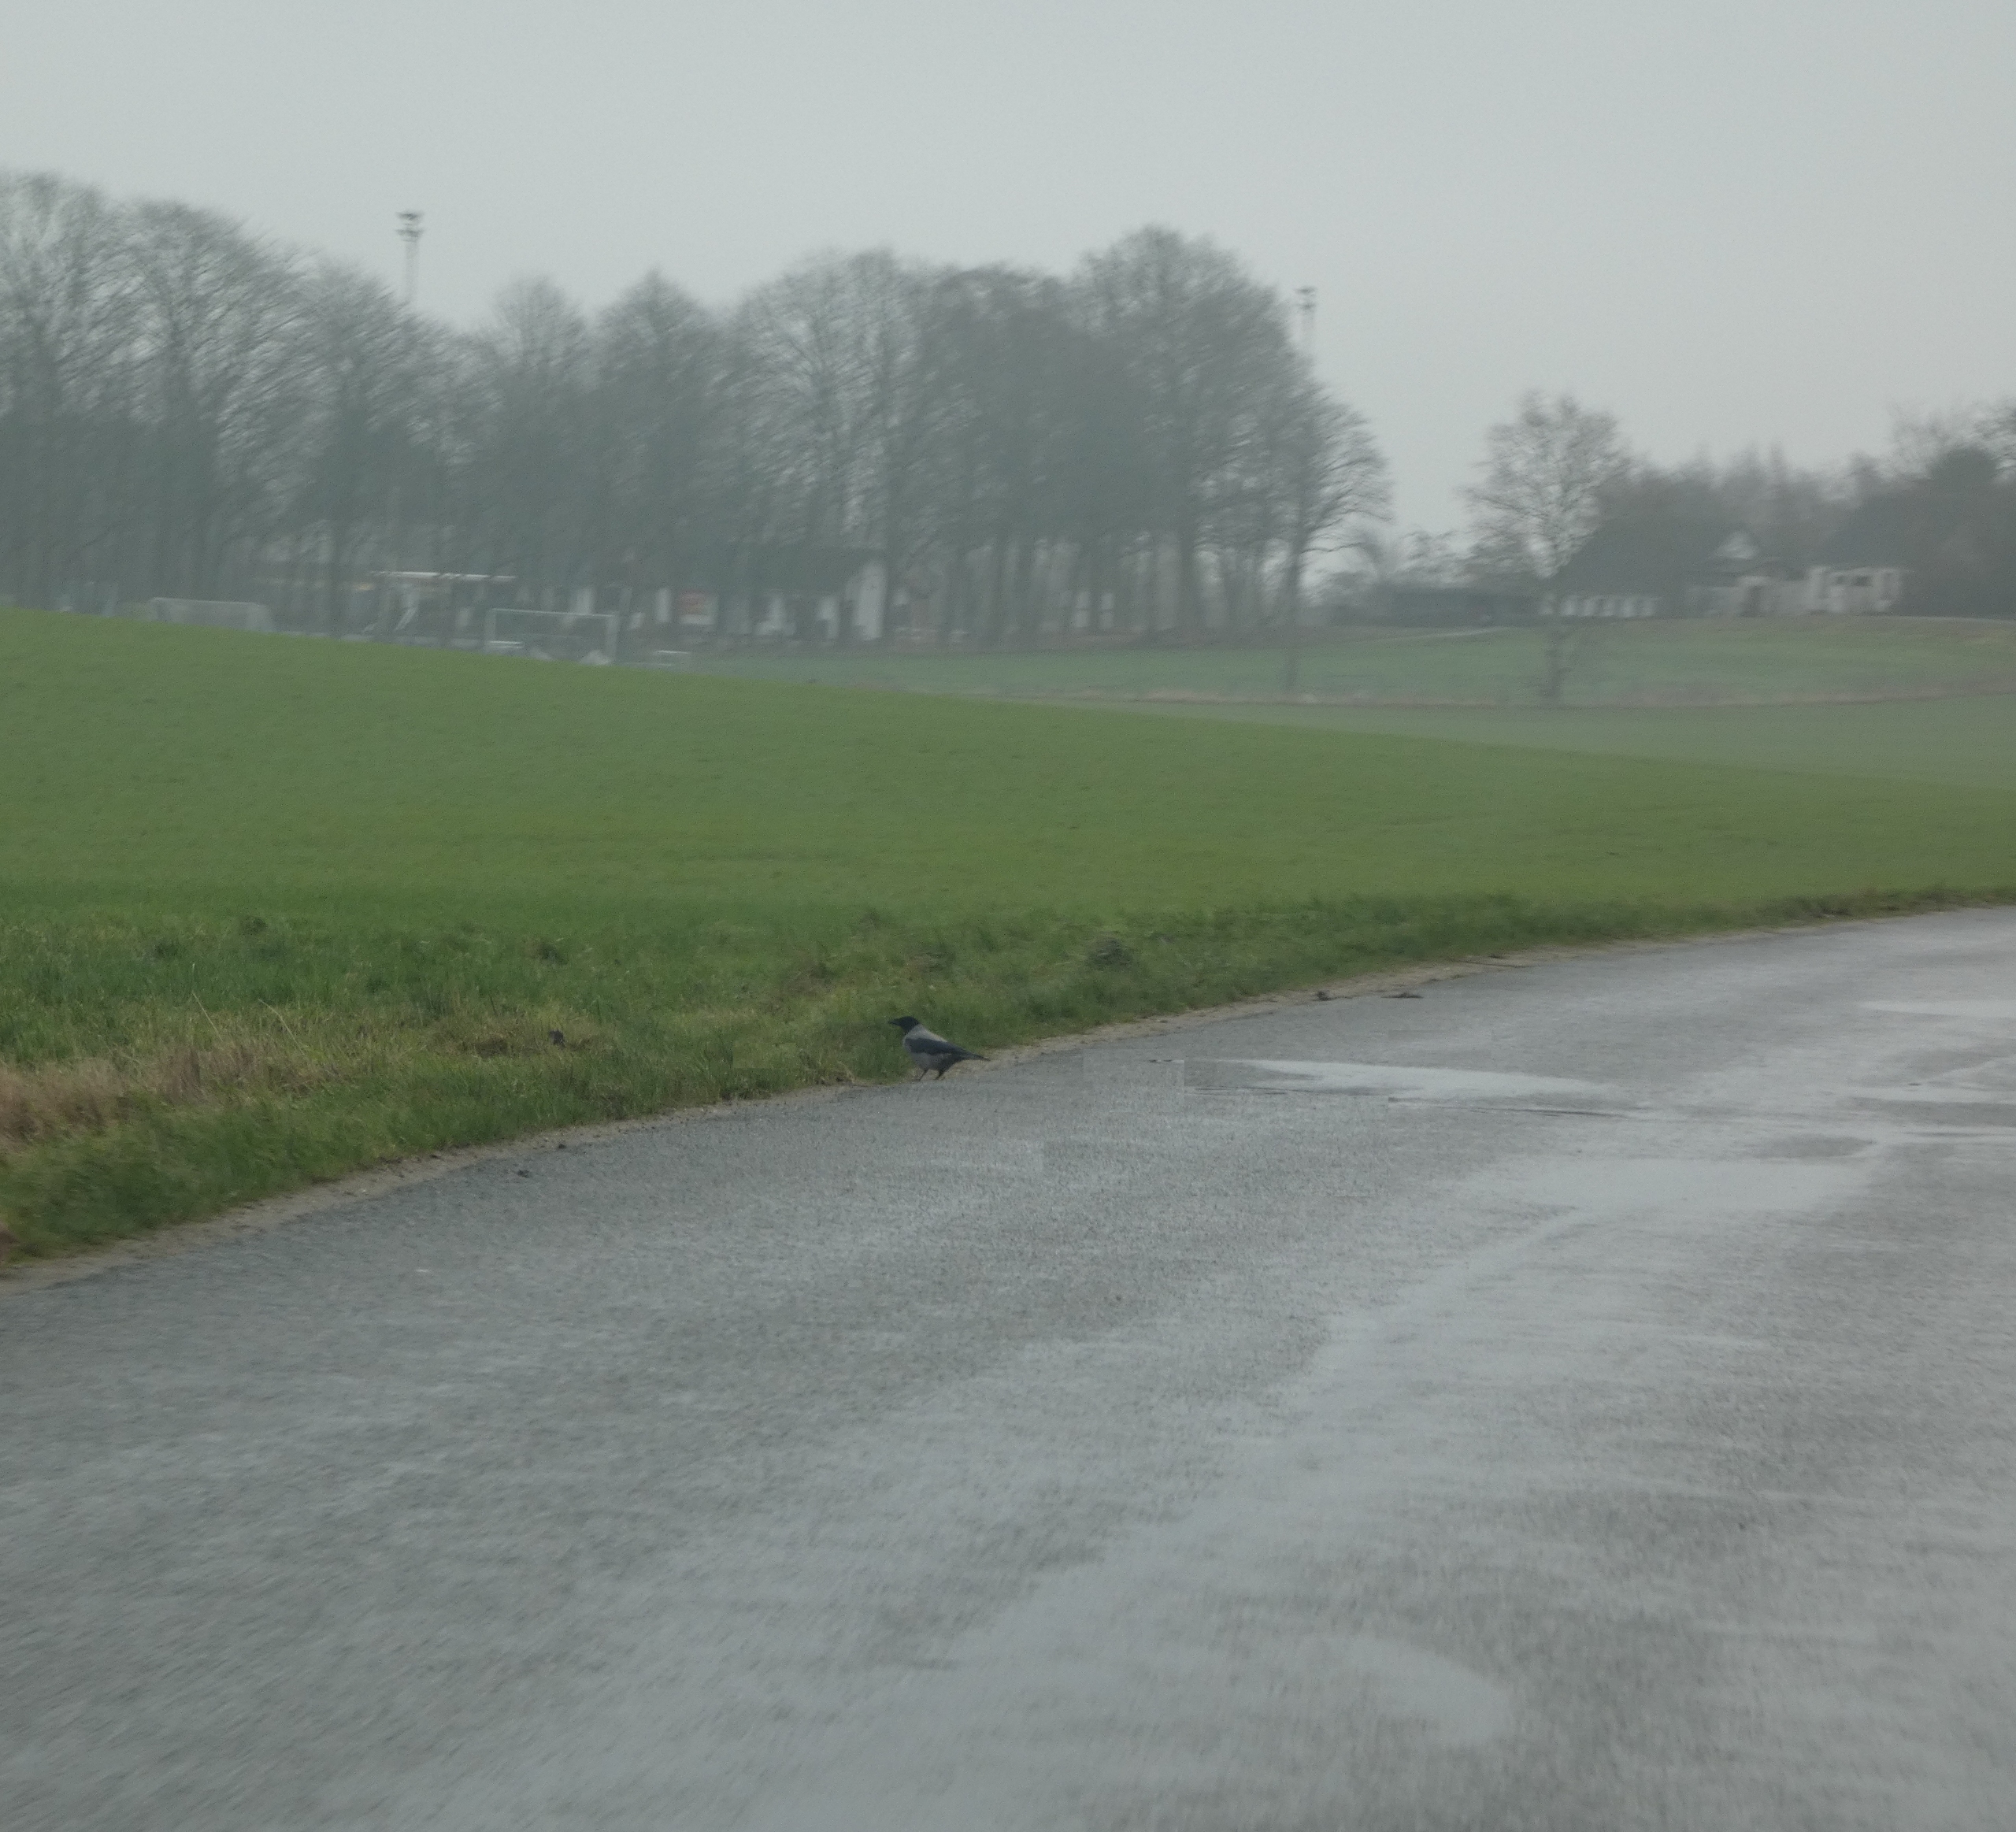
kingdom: Animalia
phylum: Chordata
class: Aves
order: Passeriformes
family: Corvidae
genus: Corvus
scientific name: Corvus cornix
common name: Gråkrage
